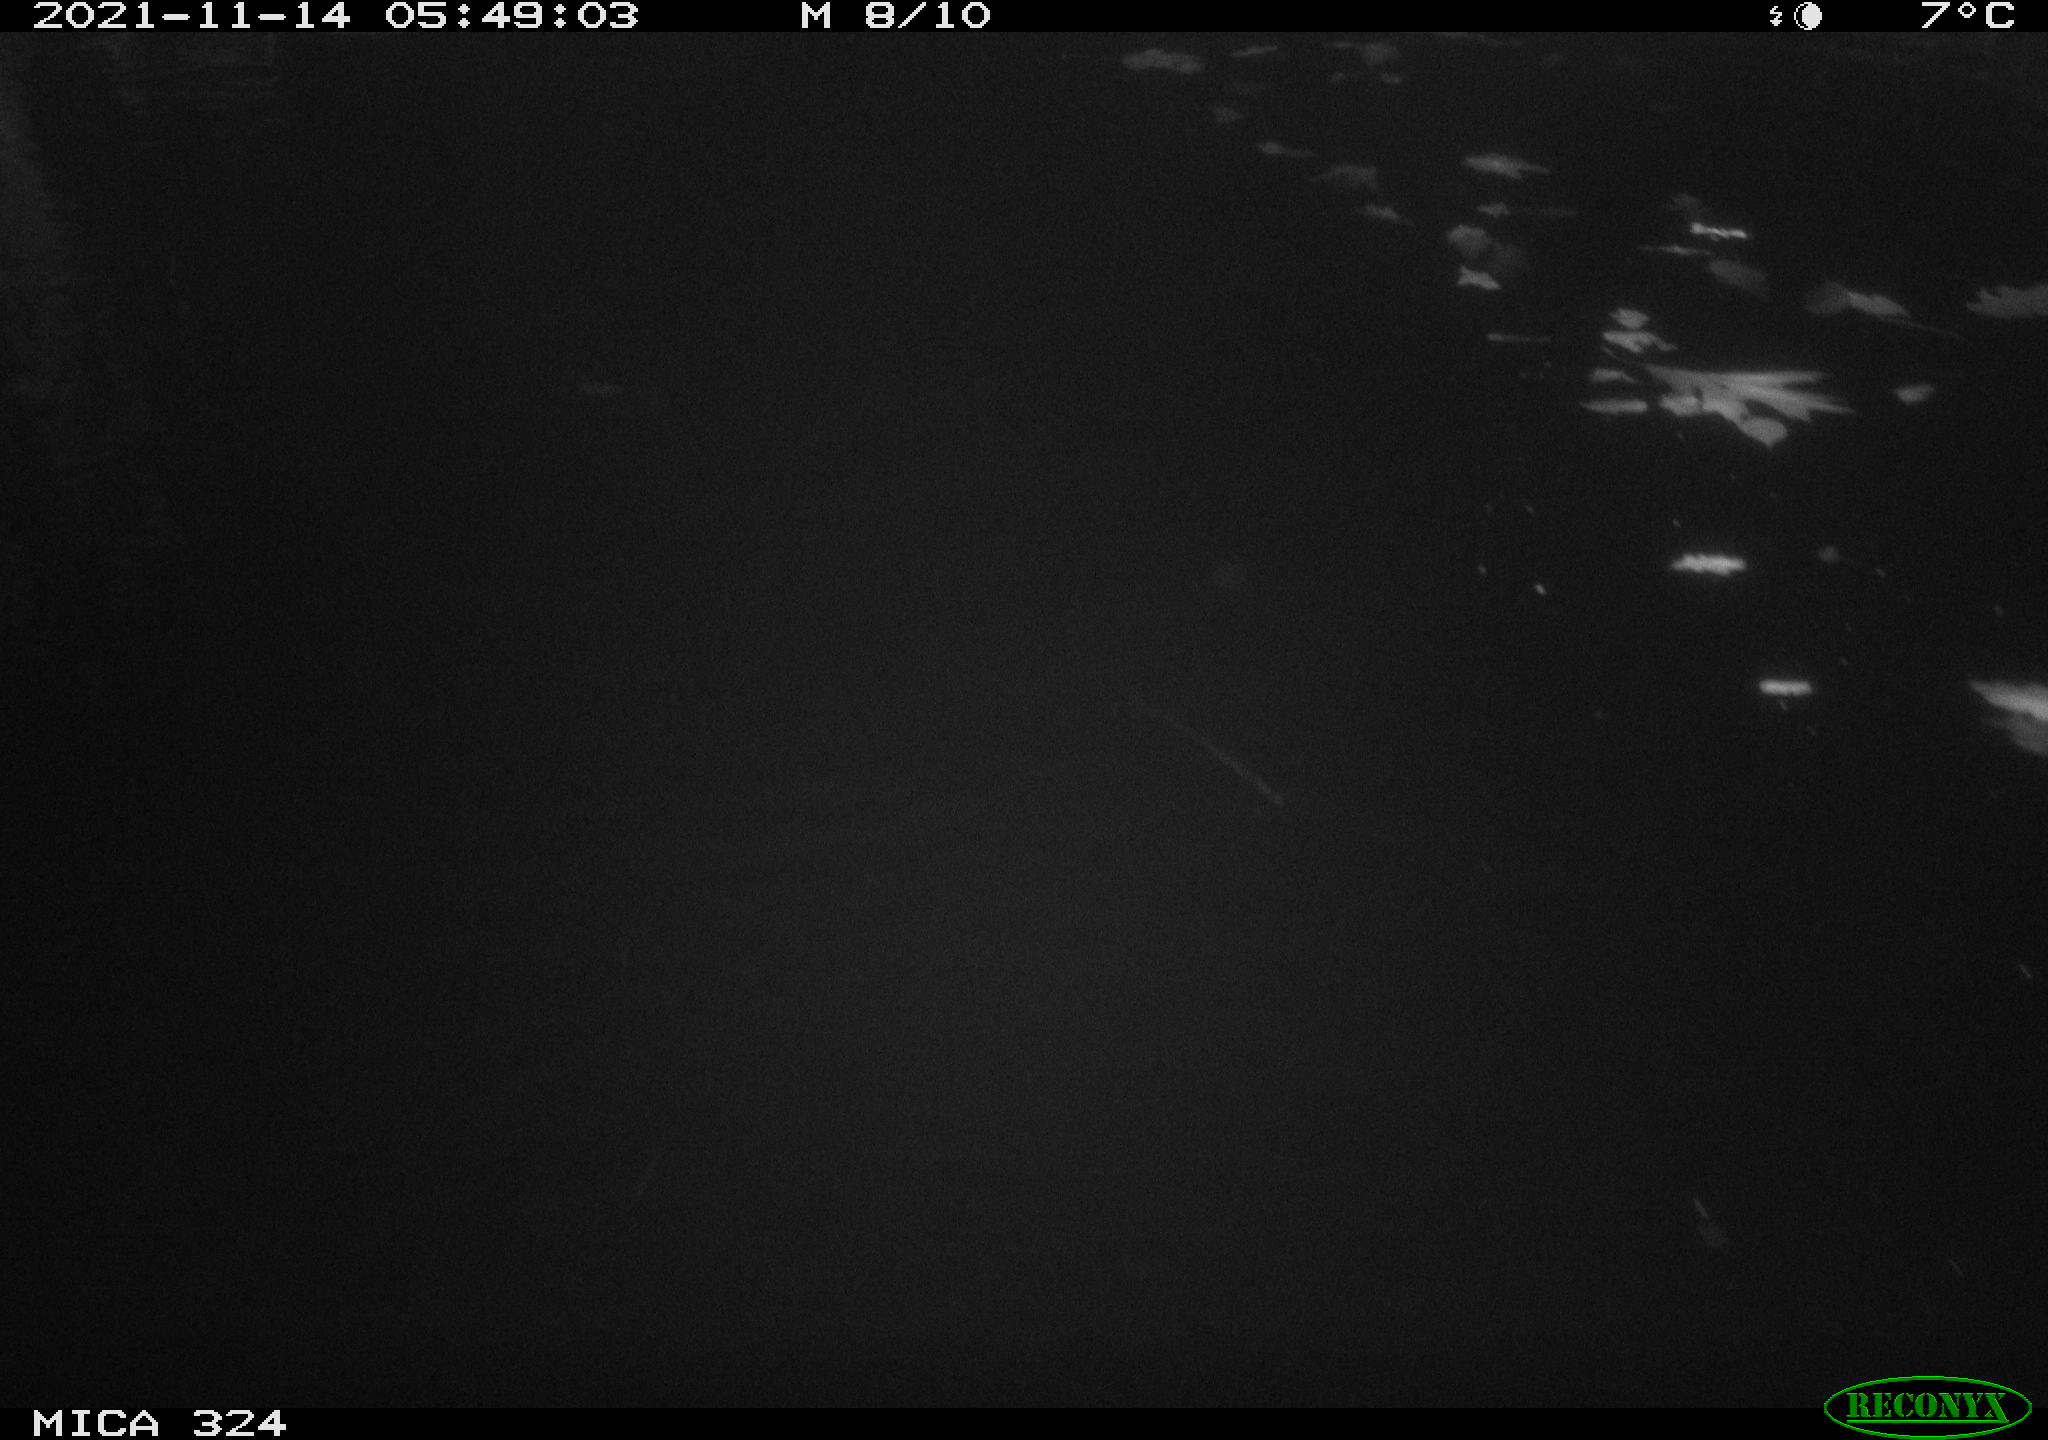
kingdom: Animalia
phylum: Chordata
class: Mammalia
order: Rodentia
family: Cricetidae
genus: Ondatra
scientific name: Ondatra zibethicus
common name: Muskrat
